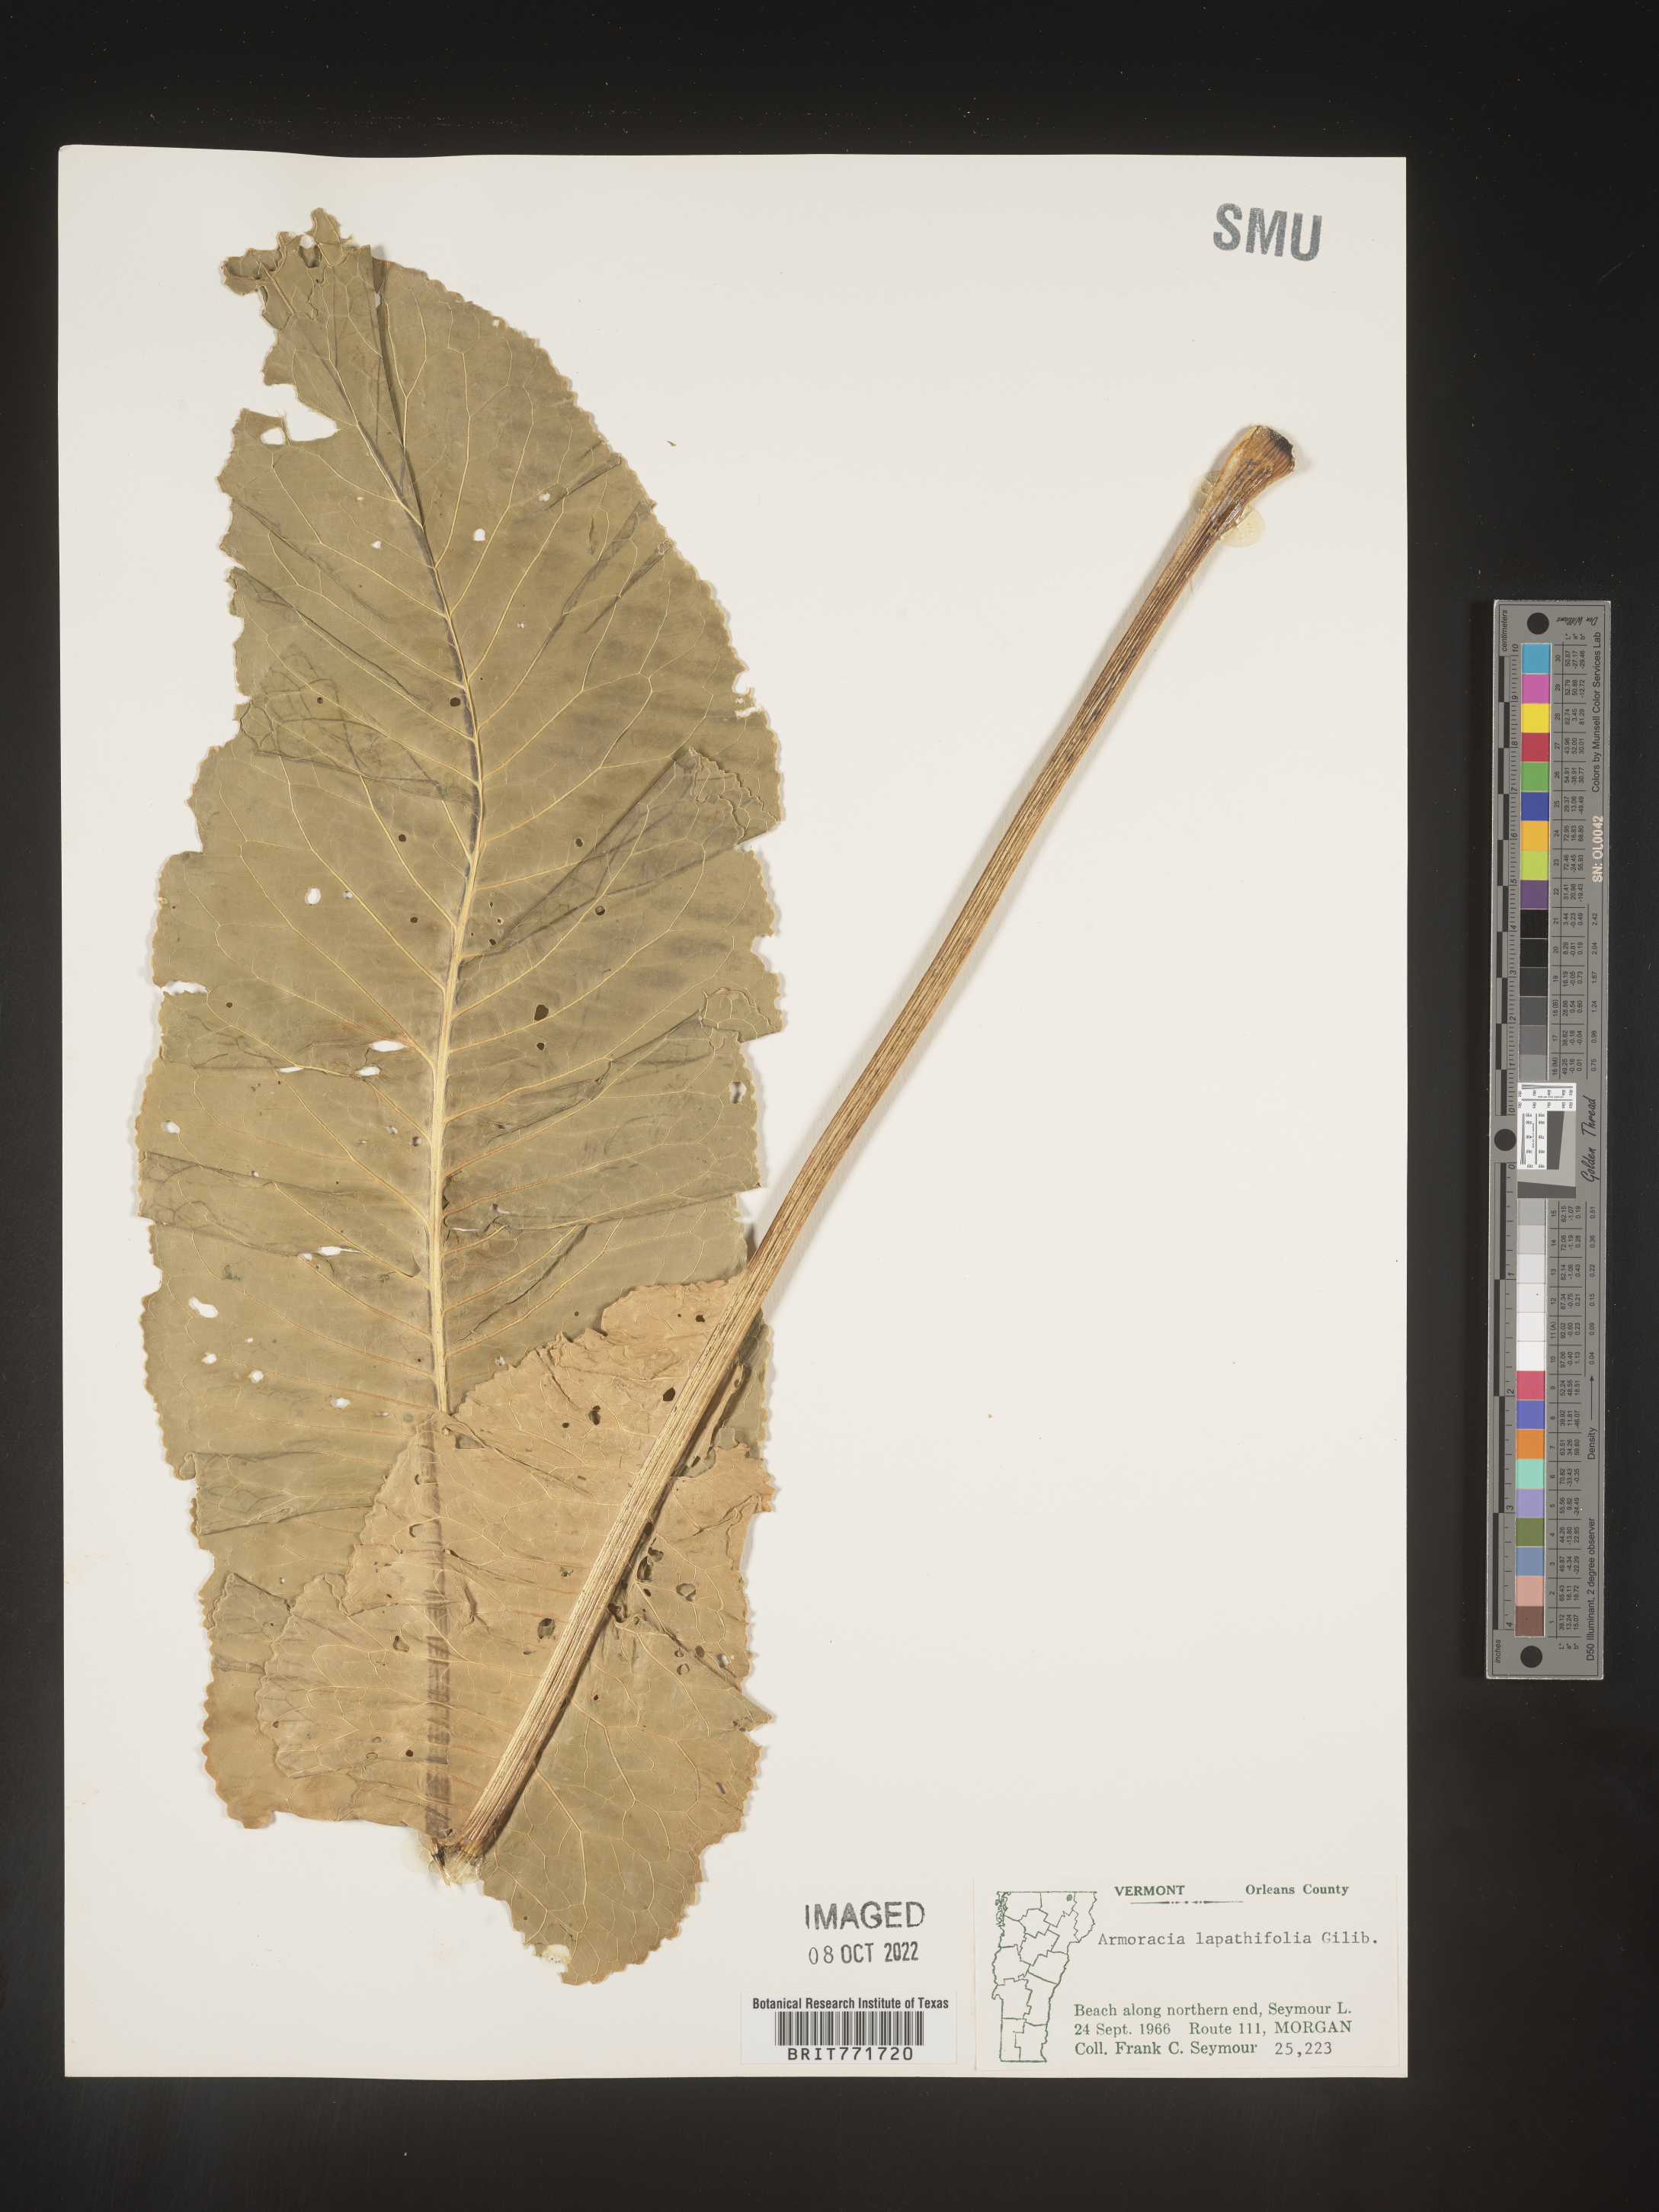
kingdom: Plantae
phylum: Tracheophyta
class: Magnoliopsida
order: Brassicales
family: Brassicaceae
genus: Armoracia
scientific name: Armoracia
